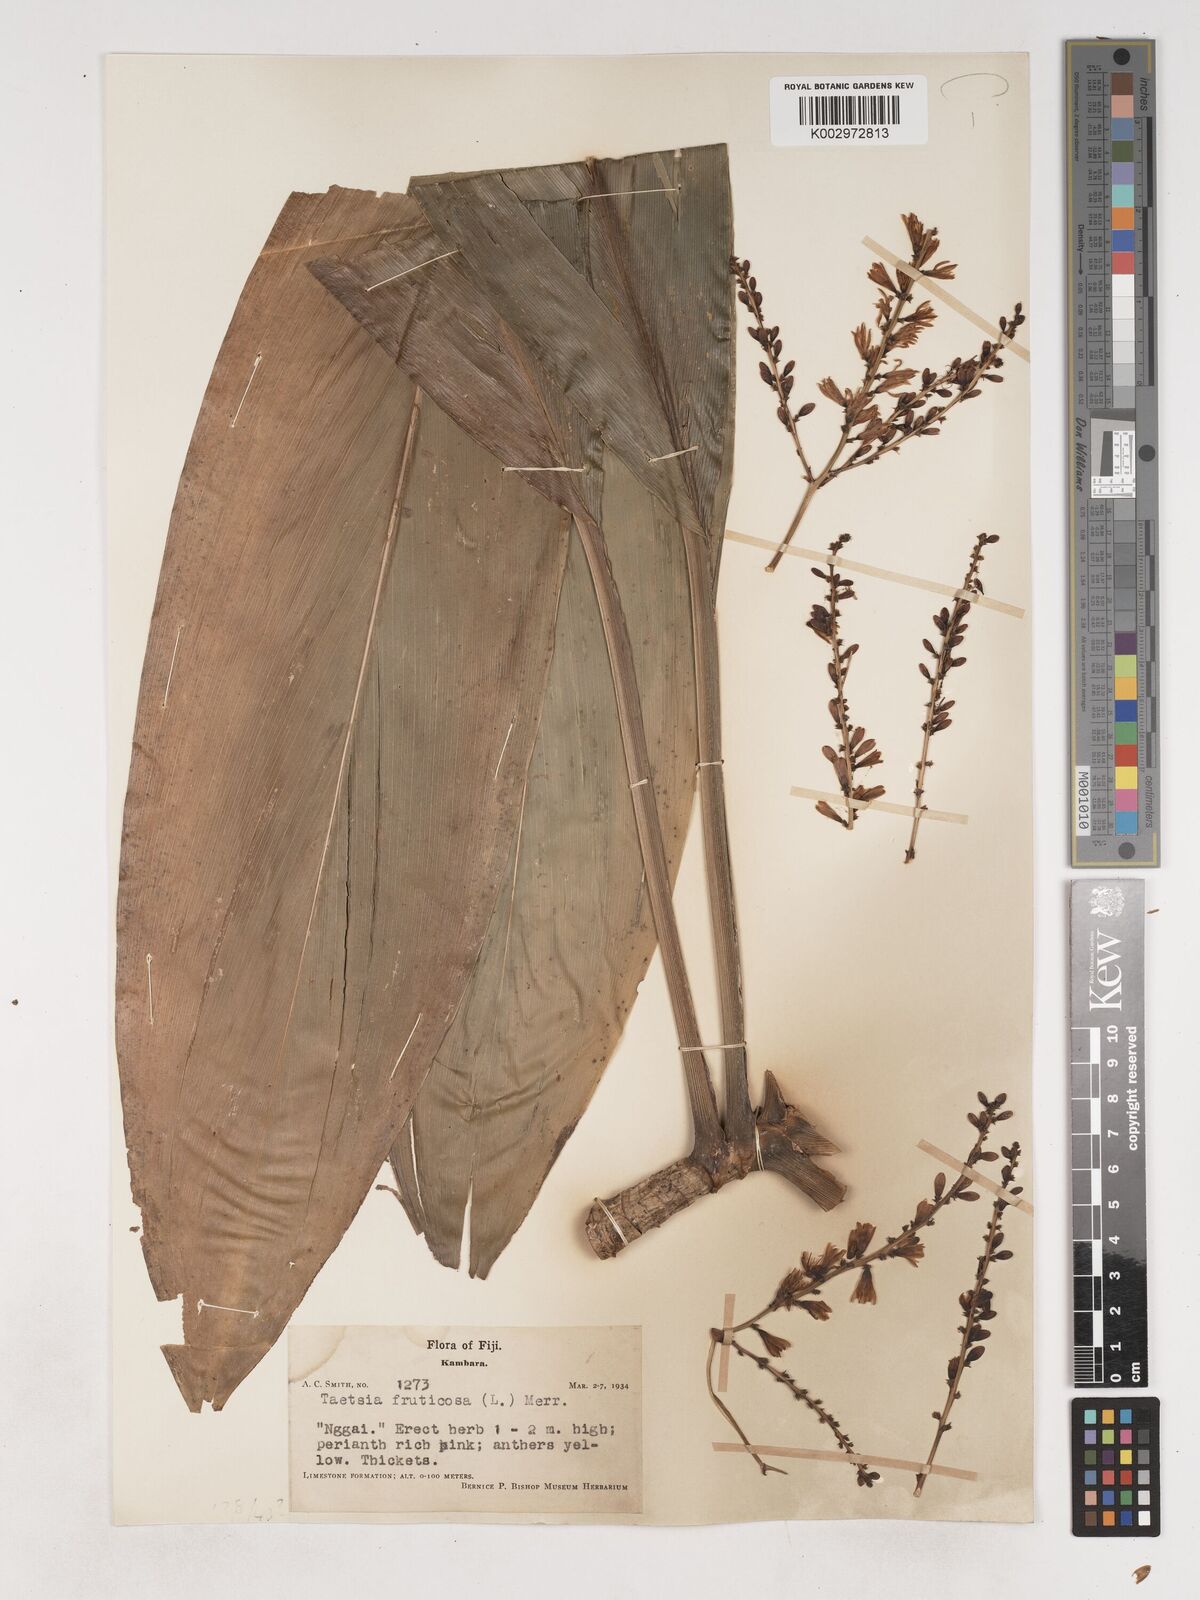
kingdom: Plantae
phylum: Tracheophyta
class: Liliopsida
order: Asparagales
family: Asparagaceae
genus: Cordyline
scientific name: Cordyline fruticosa
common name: Good-luck-plant
